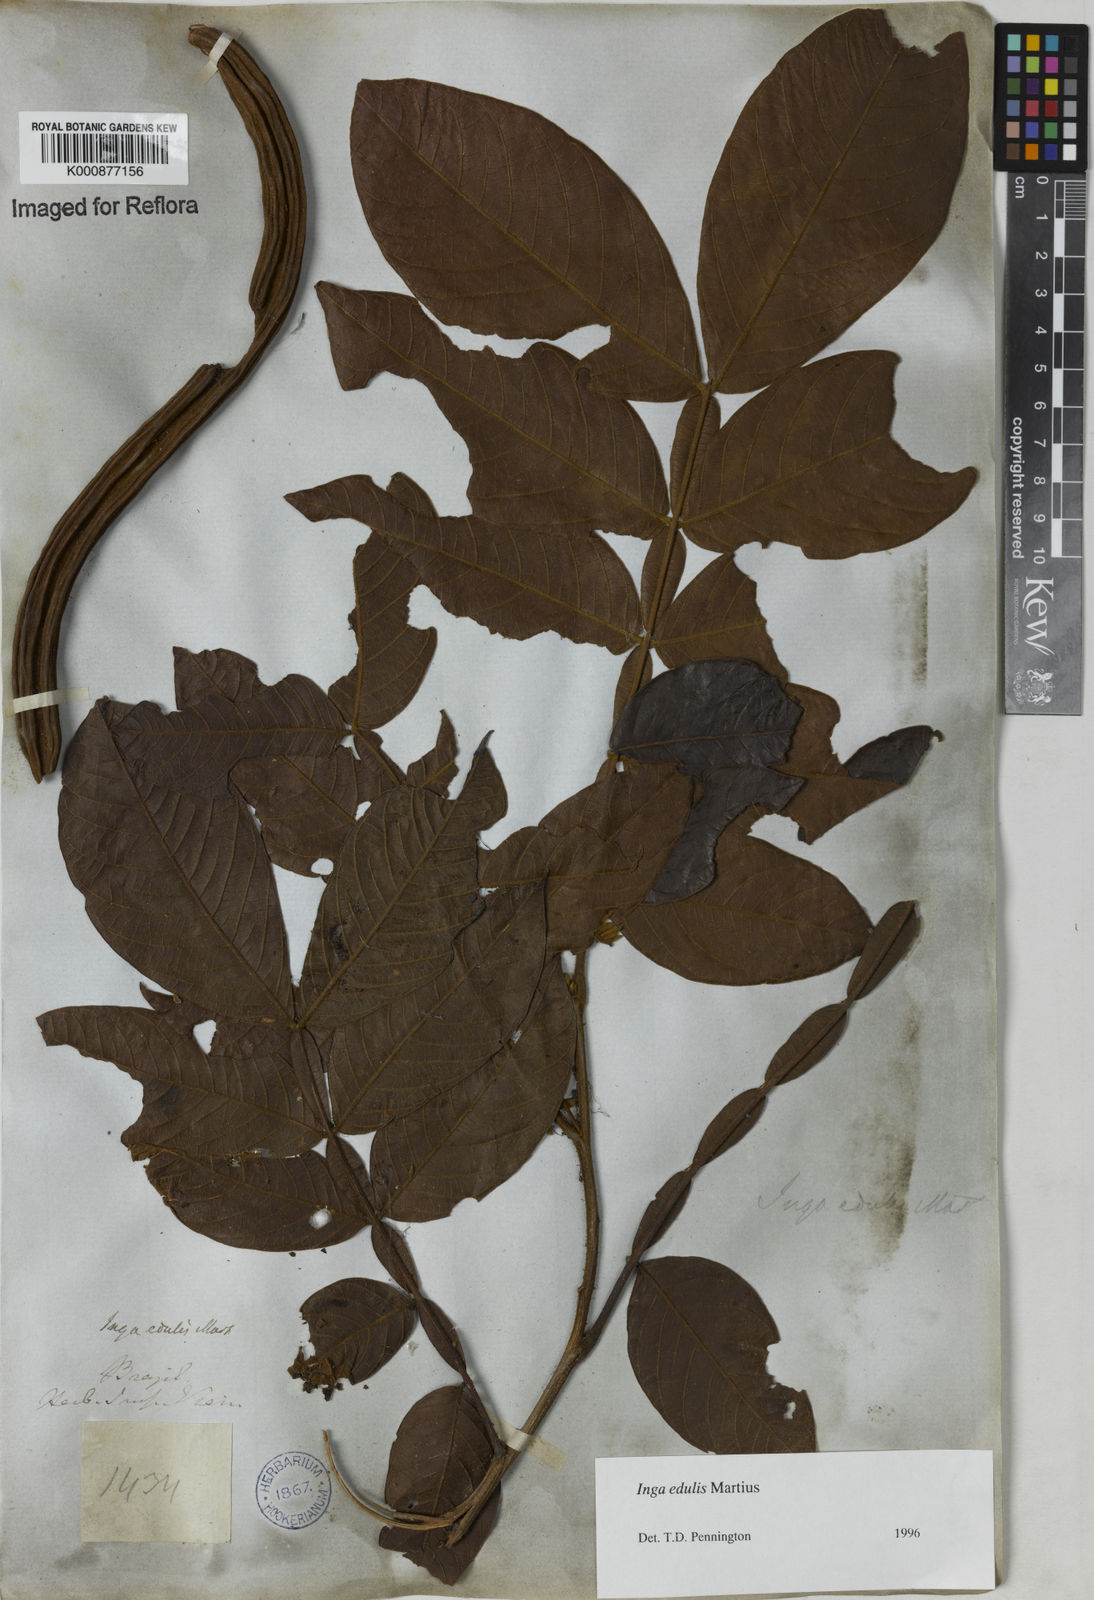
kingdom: Plantae
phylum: Tracheophyta
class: Magnoliopsida
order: Fabales
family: Fabaceae
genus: Inga
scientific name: Inga edulis
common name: Ice cream bean
